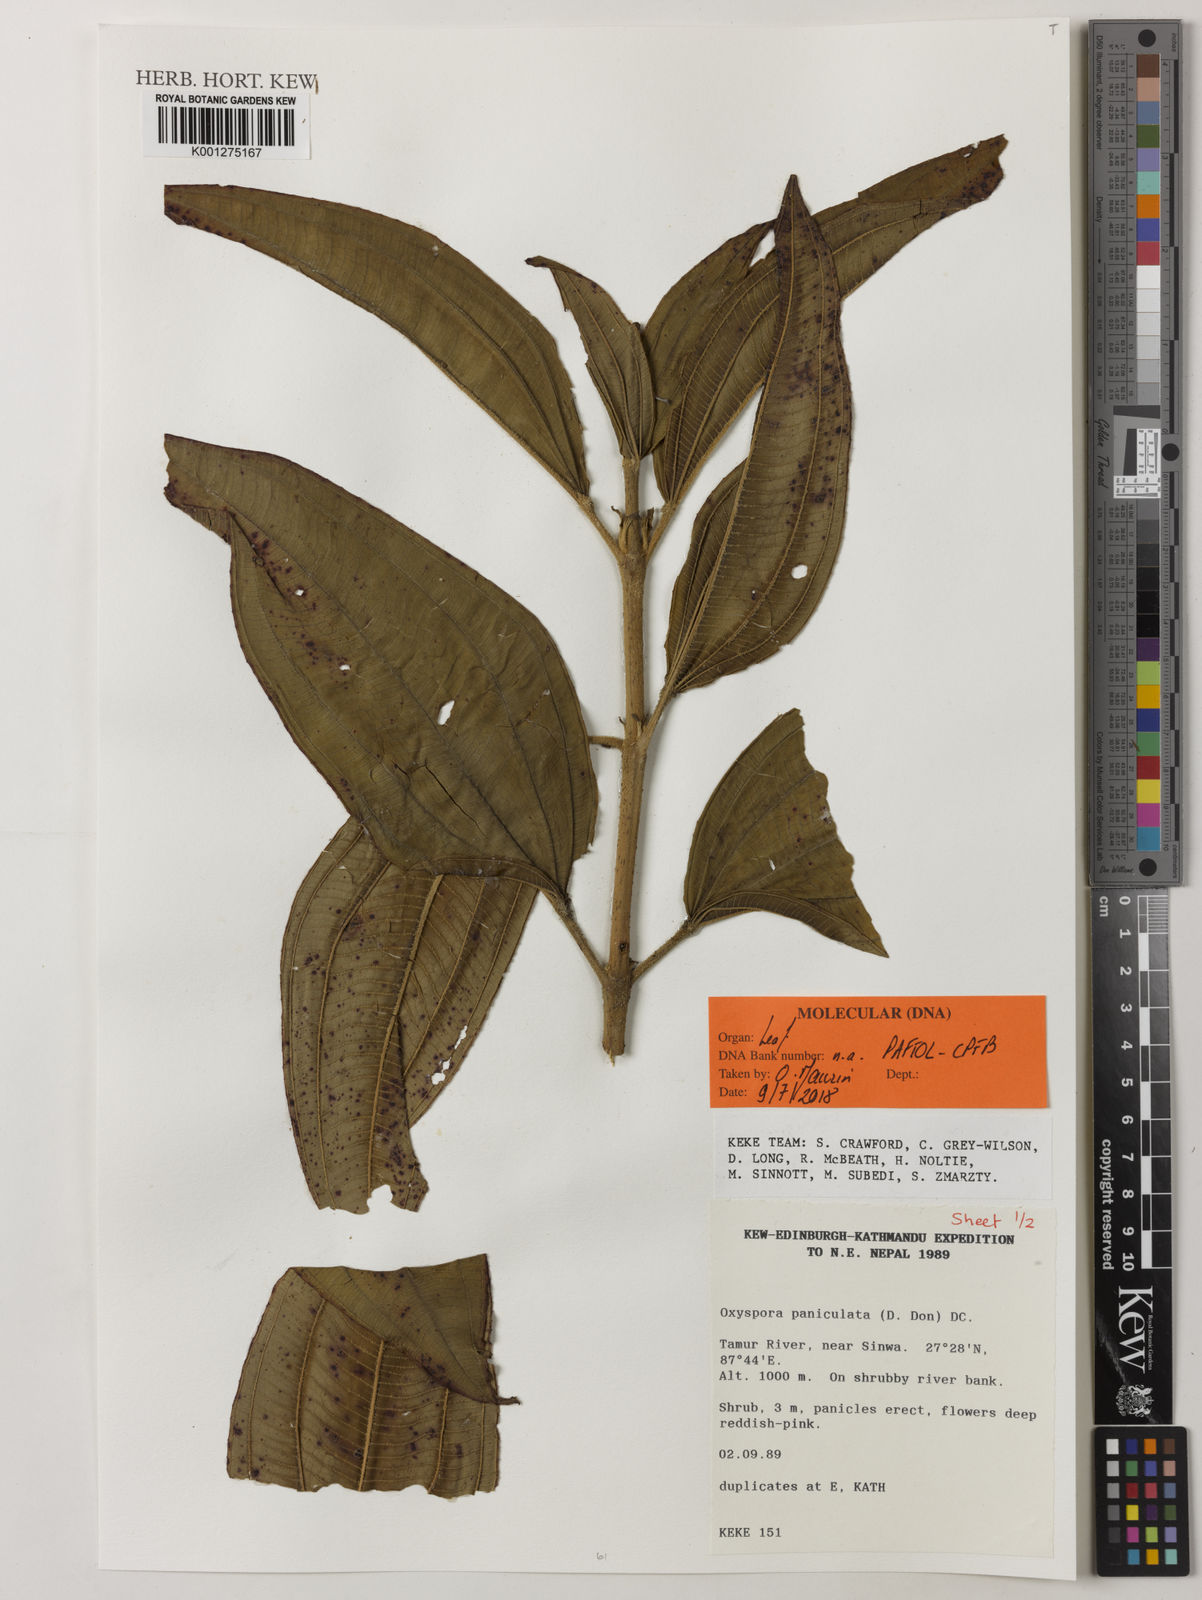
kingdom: Plantae
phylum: Tracheophyta
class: Magnoliopsida
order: Myrtales
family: Melastomataceae
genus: Oxyspora
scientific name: Oxyspora paniculata
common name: Bristletips
